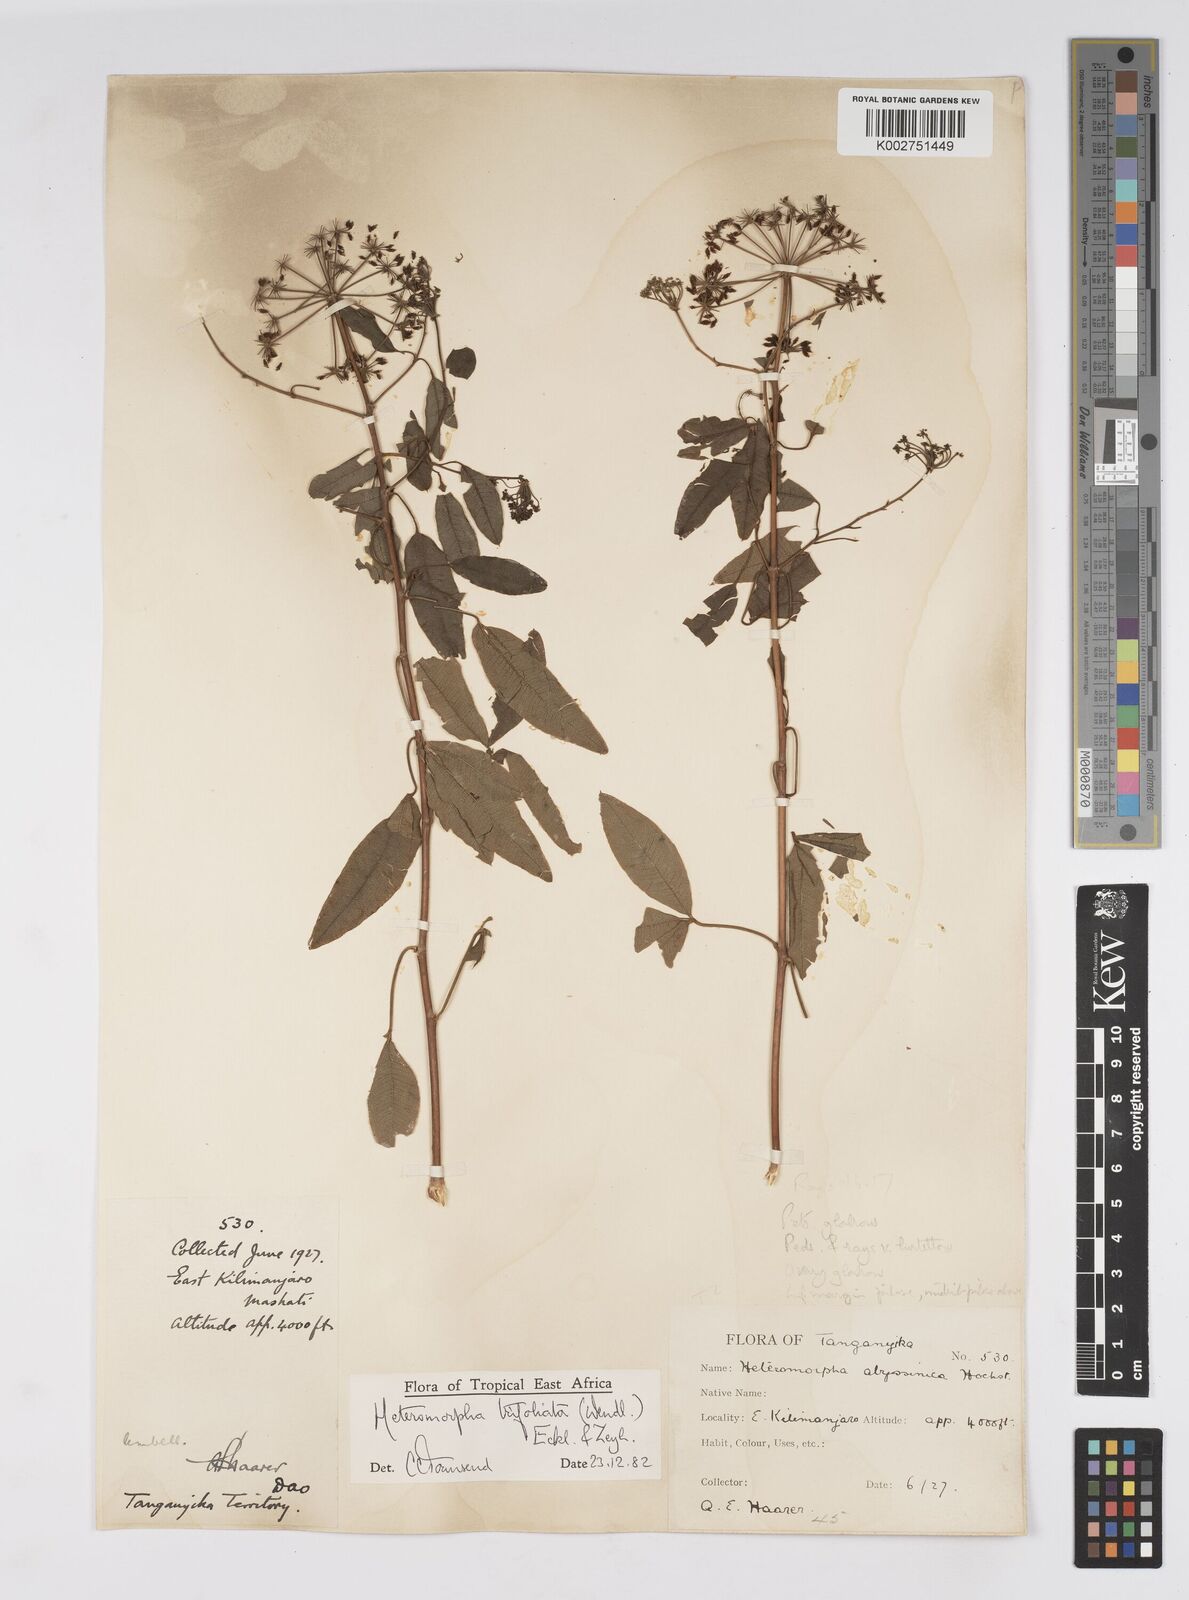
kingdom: Plantae
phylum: Tracheophyta
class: Magnoliopsida
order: Apiales
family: Apiaceae
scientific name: Apiaceae
